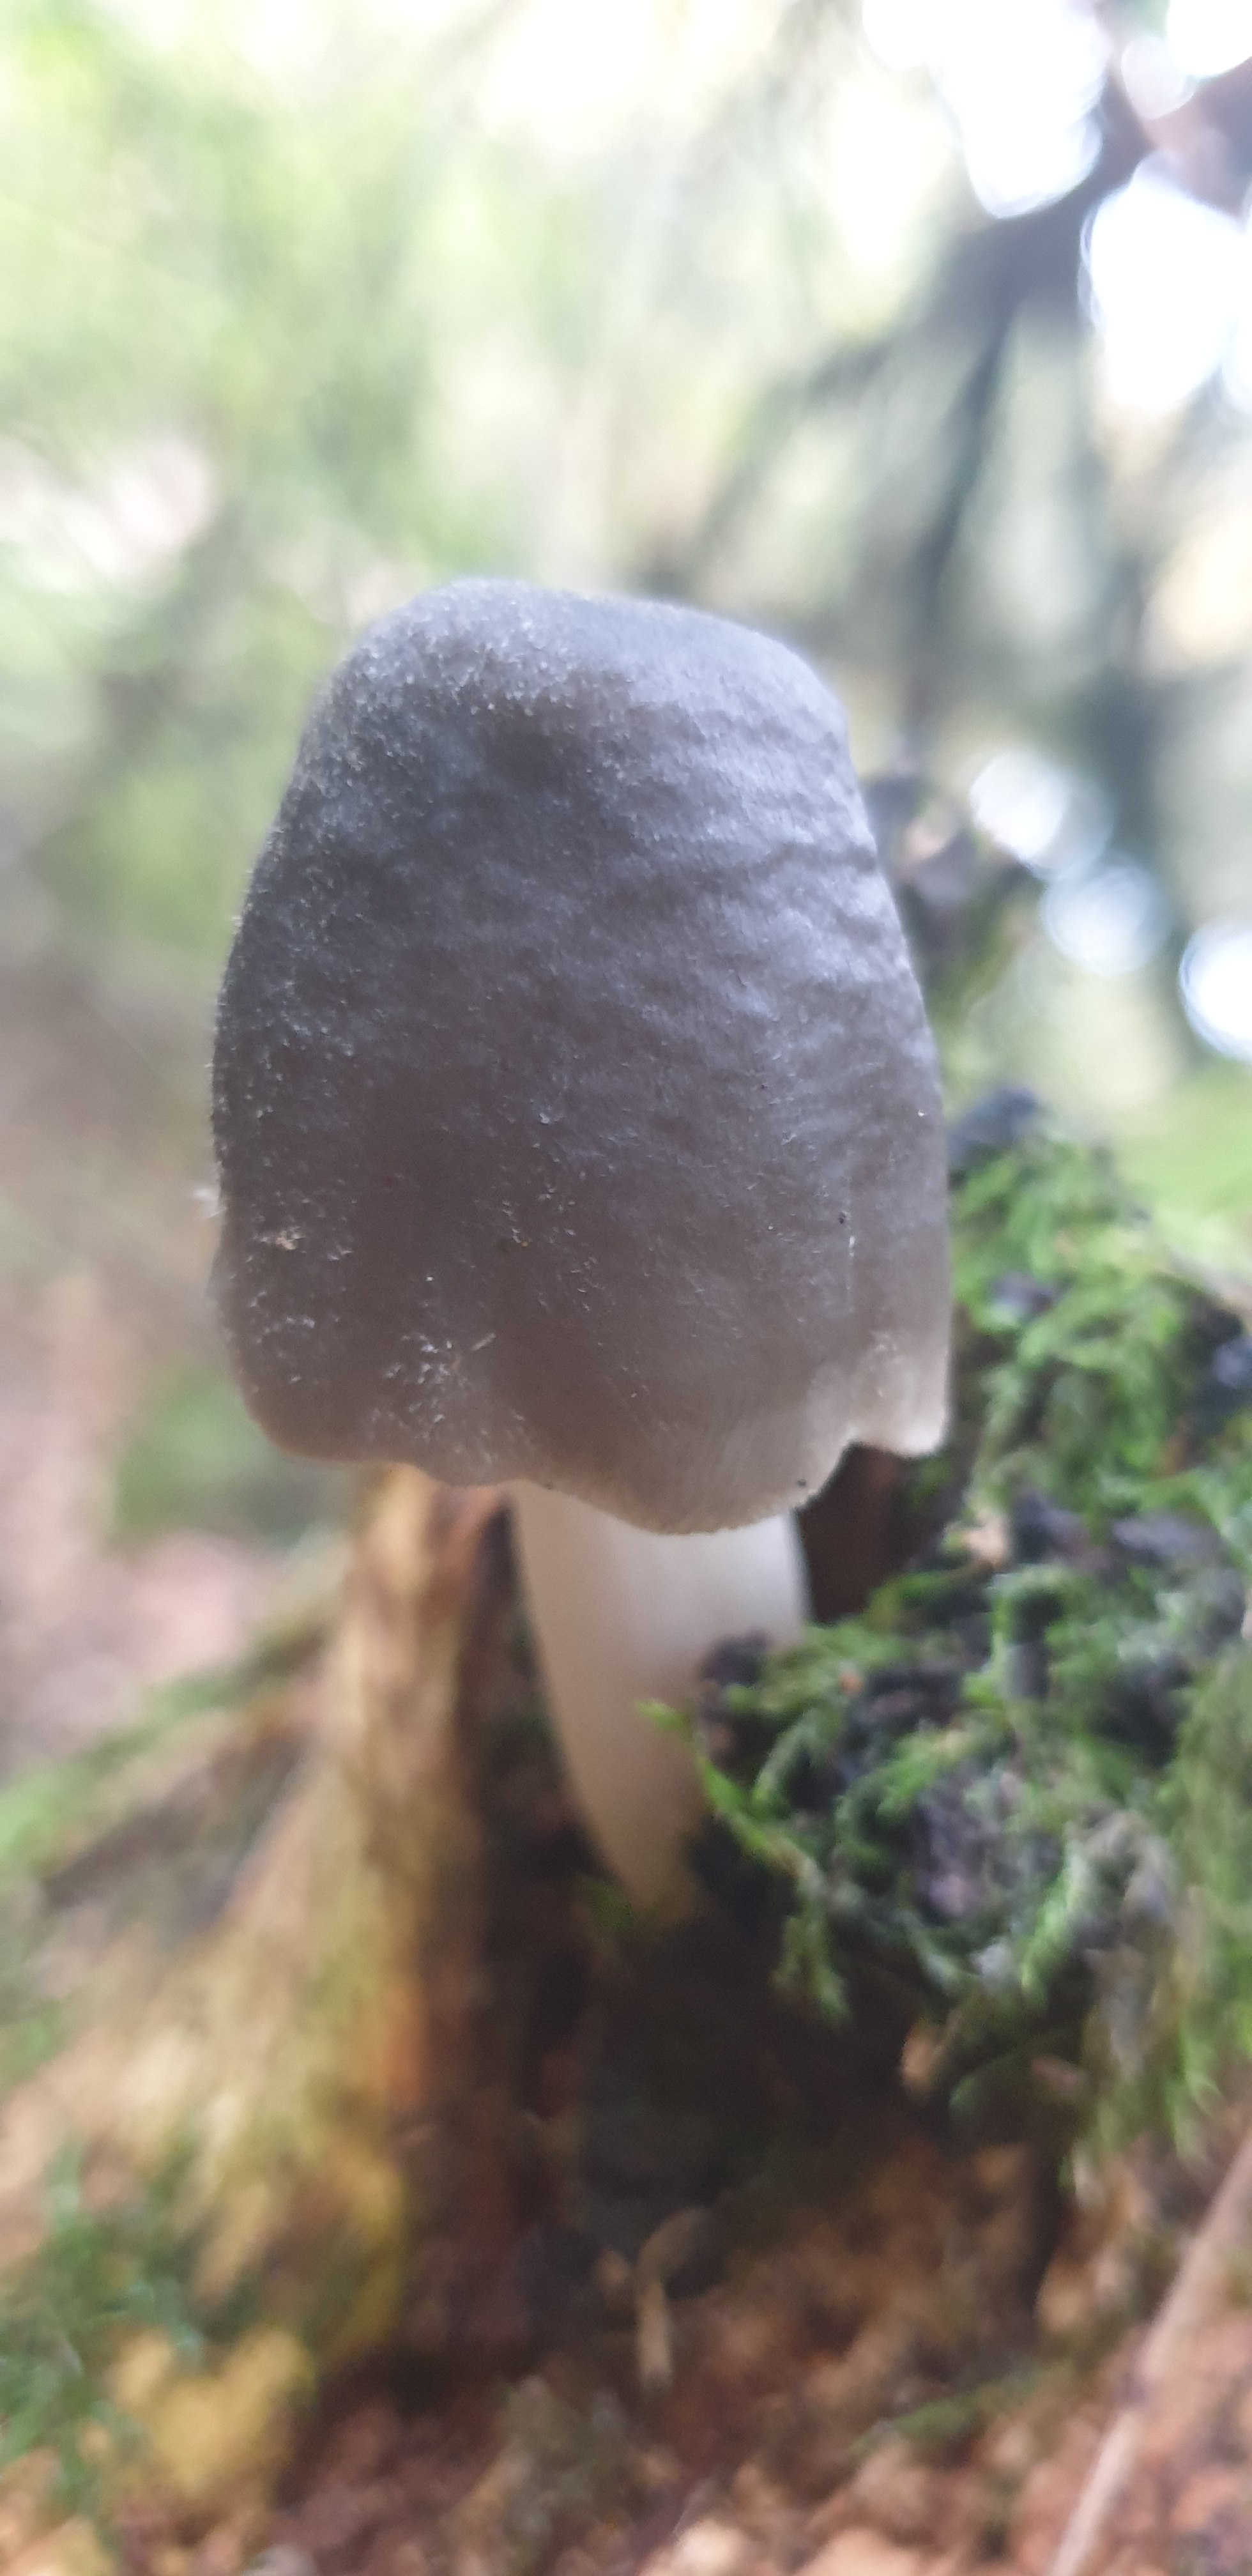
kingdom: Fungi
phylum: Basidiomycota
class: Agaricomycetes
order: Agaricales
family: Pluteaceae
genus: Pluteus
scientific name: Pluteus salicinus
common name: stiv skærmhat
